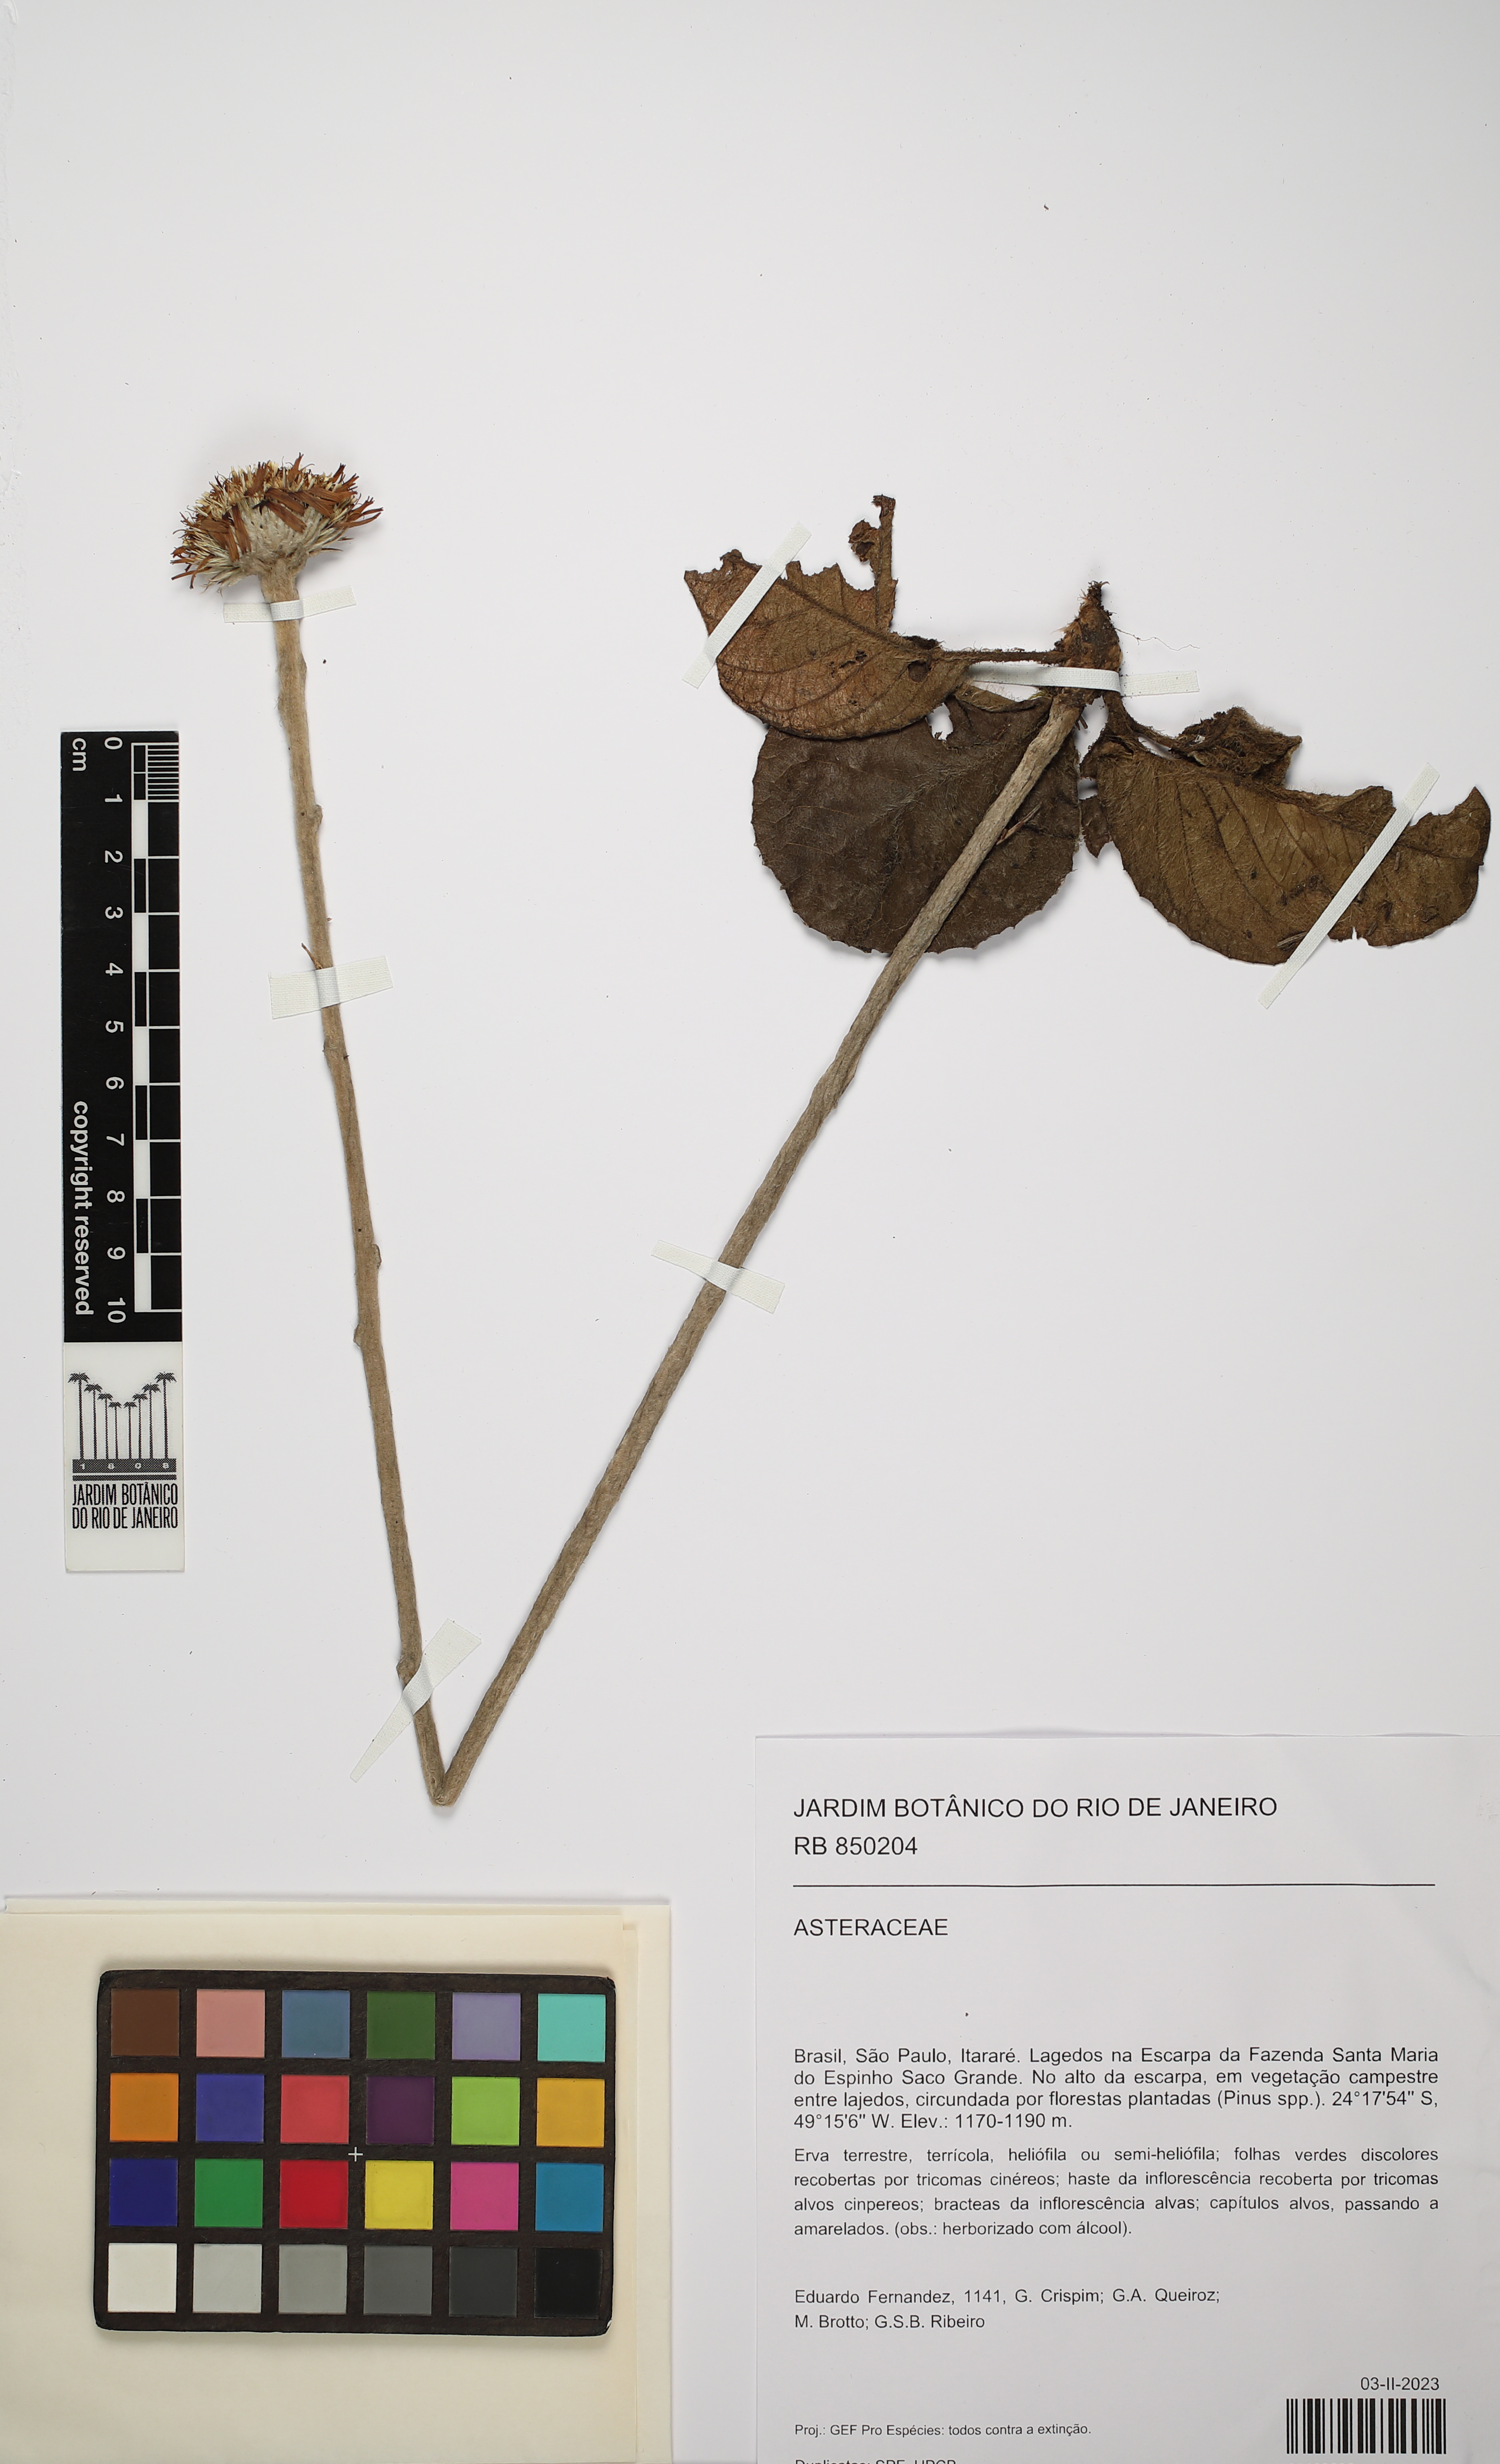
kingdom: Plantae
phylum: Tracheophyta
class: Magnoliopsida
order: Asterales
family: Asteraceae
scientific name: Asteraceae
